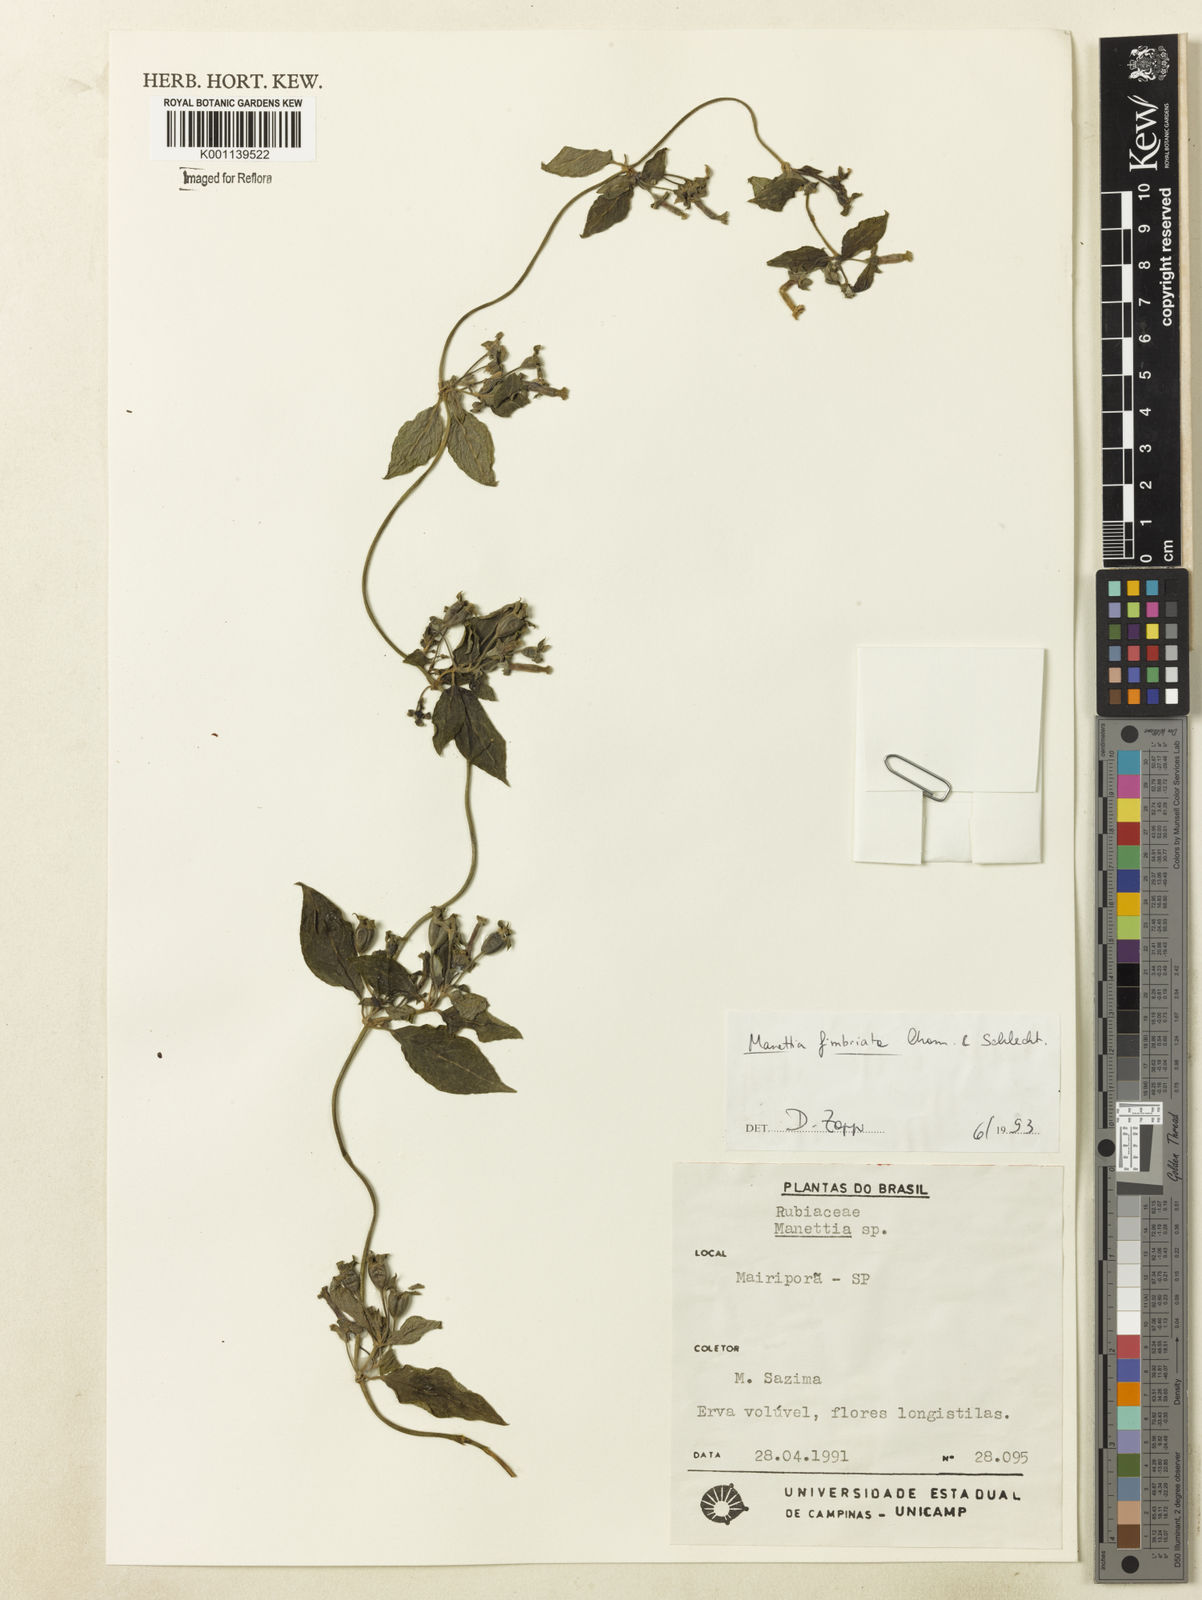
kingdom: Plantae
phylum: Tracheophyta
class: Magnoliopsida
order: Gentianales
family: Rubiaceae
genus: Manettia
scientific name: Manettia fimbriata
